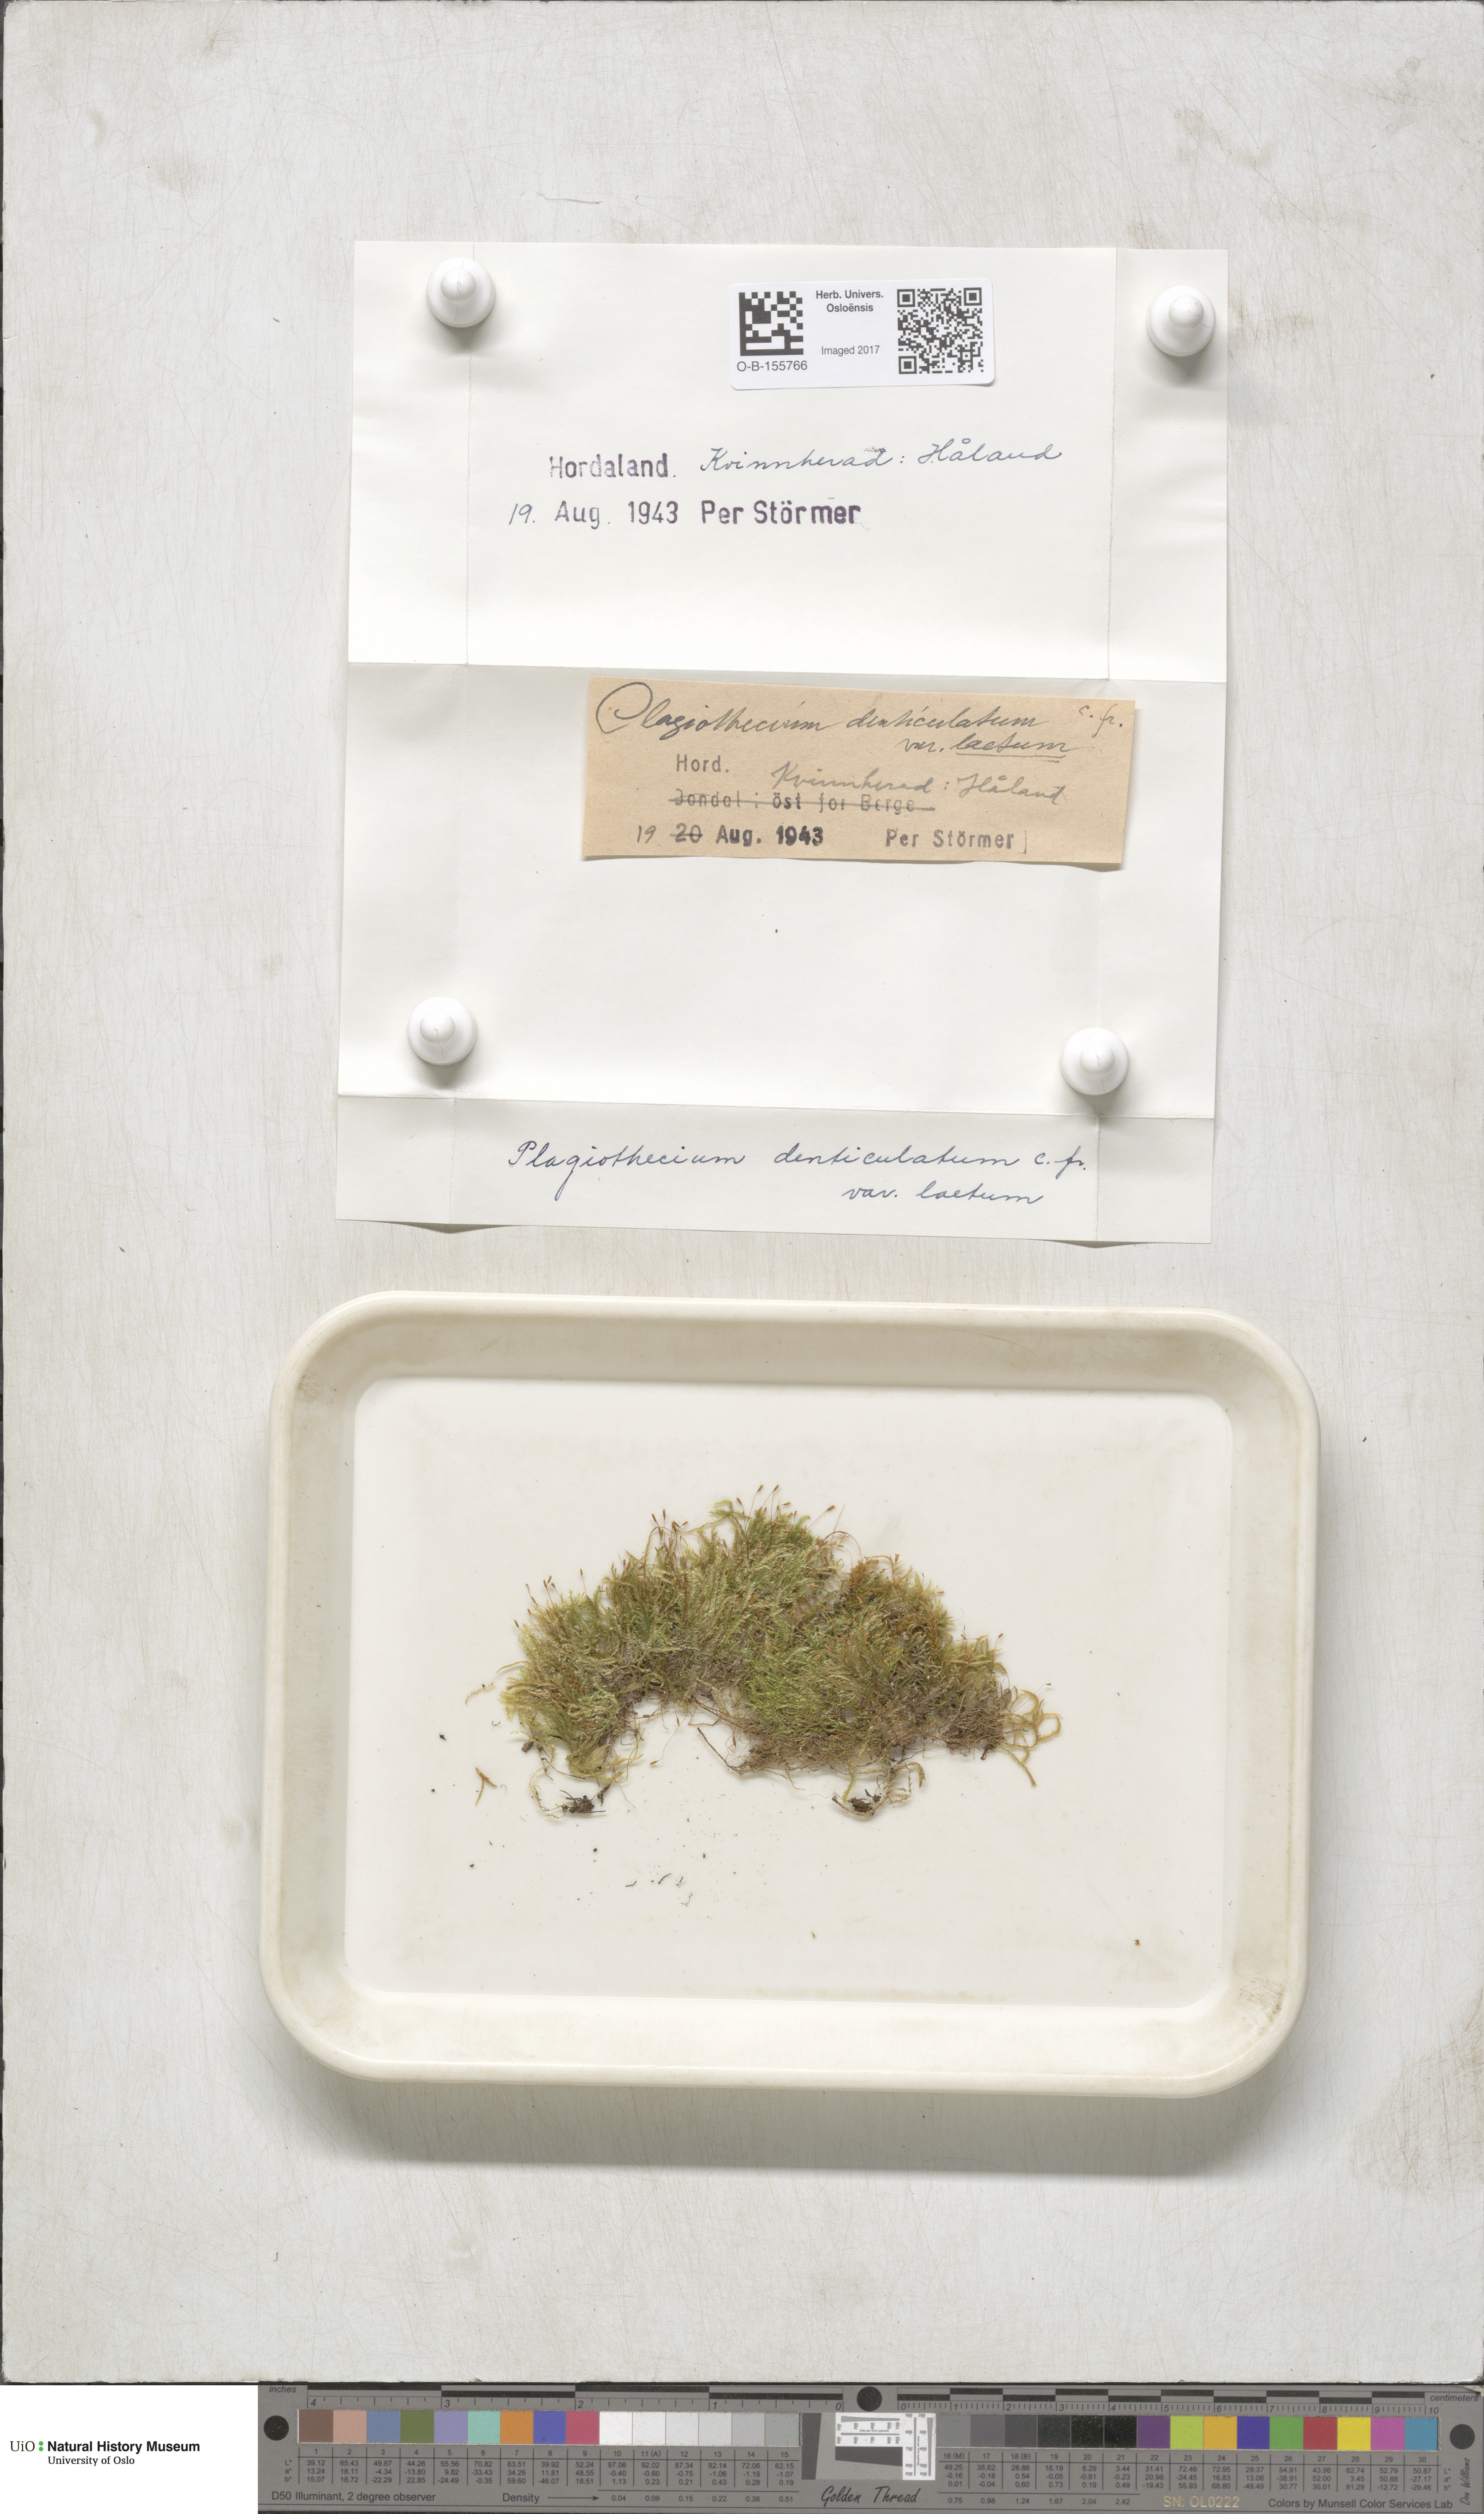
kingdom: Plantae
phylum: Bryophyta
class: Bryopsida
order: Hypnales
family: Plagiotheciaceae
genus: Plagiothecium
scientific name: Plagiothecium laetum
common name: Bright silk moss
